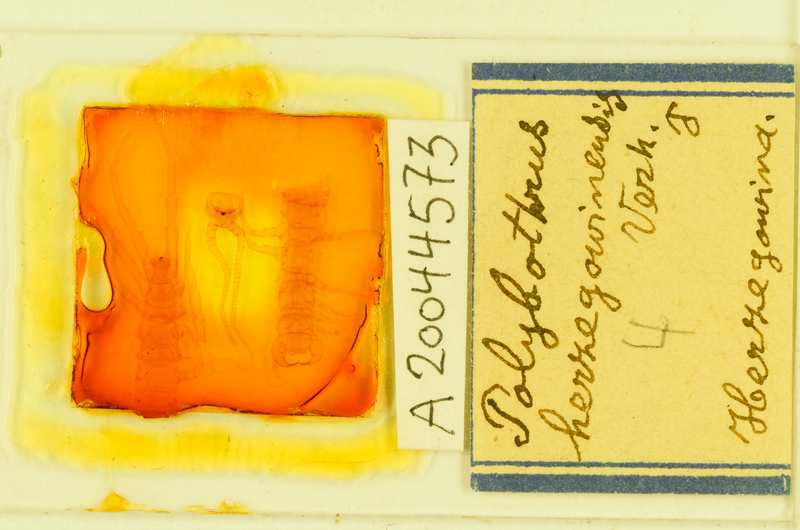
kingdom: Animalia
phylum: Arthropoda
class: Chilopoda
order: Lithobiomorpha
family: Lithobiidae
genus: Polybothrus
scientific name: Polybothrus fasciatus
